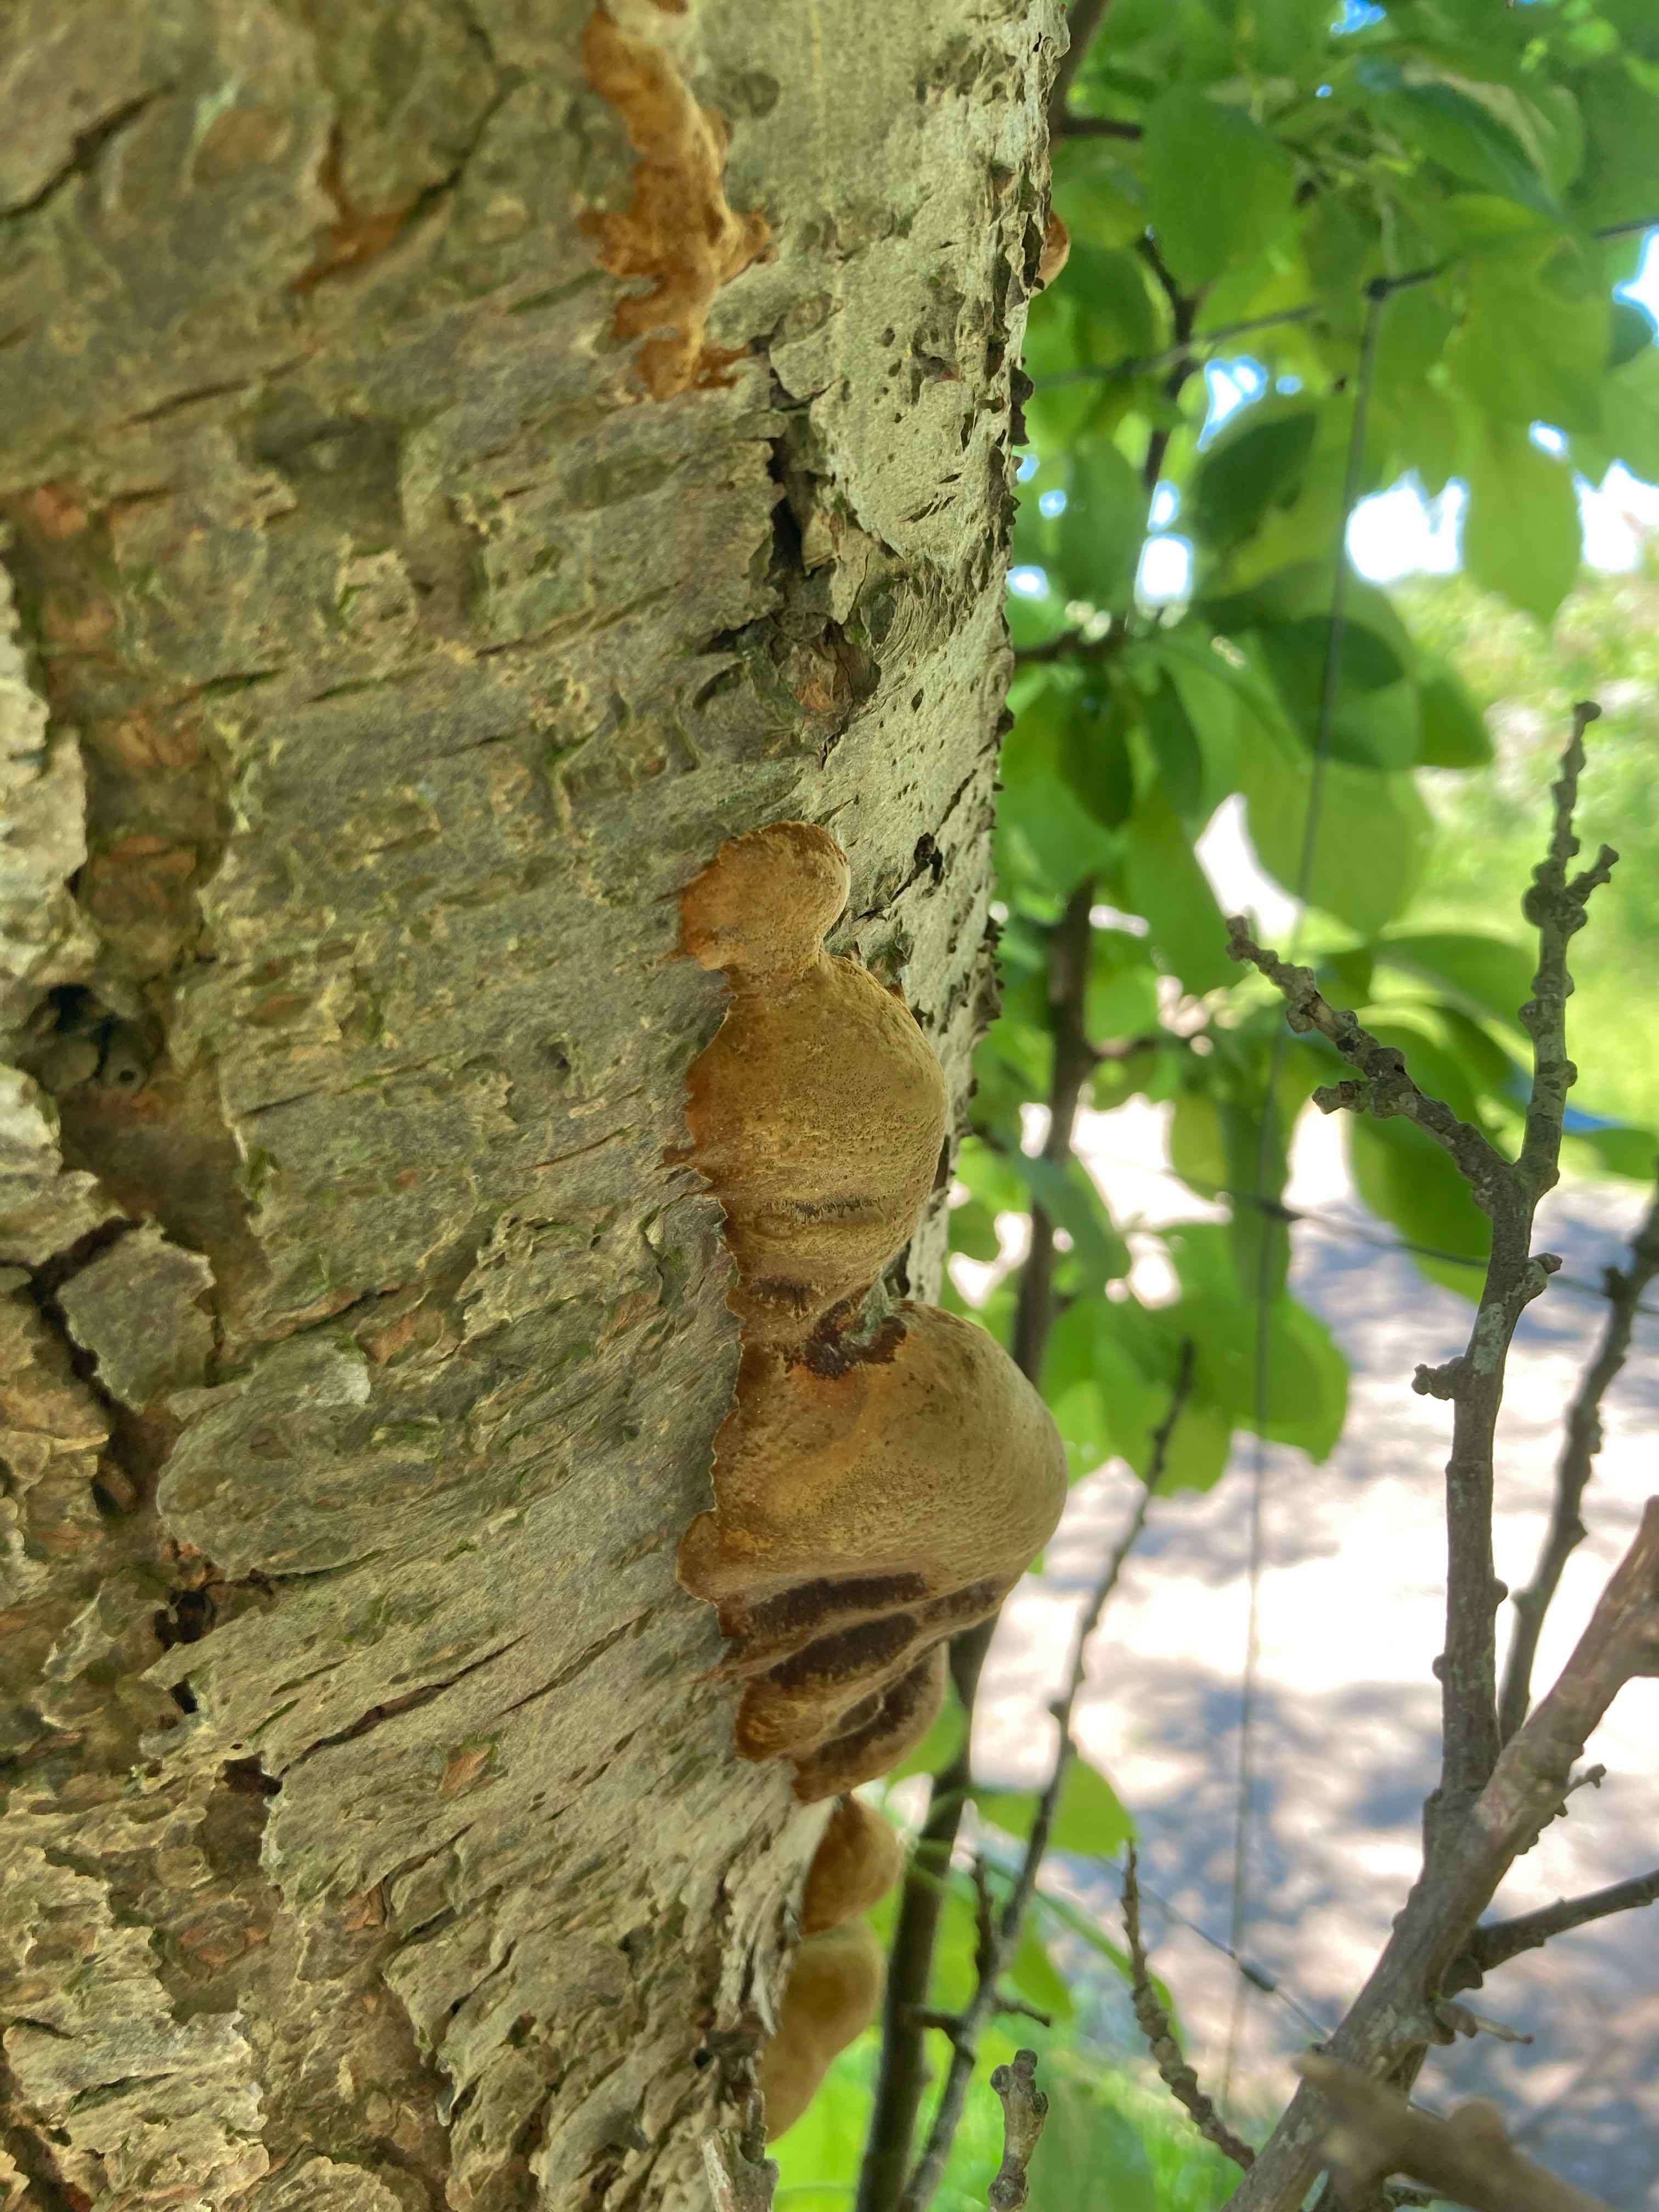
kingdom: Fungi
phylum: Basidiomycota
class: Agaricomycetes
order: Hymenochaetales
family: Hymenochaetaceae
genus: Phellinus
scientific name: Phellinus pomaceus
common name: blomme-ildporesvamp
